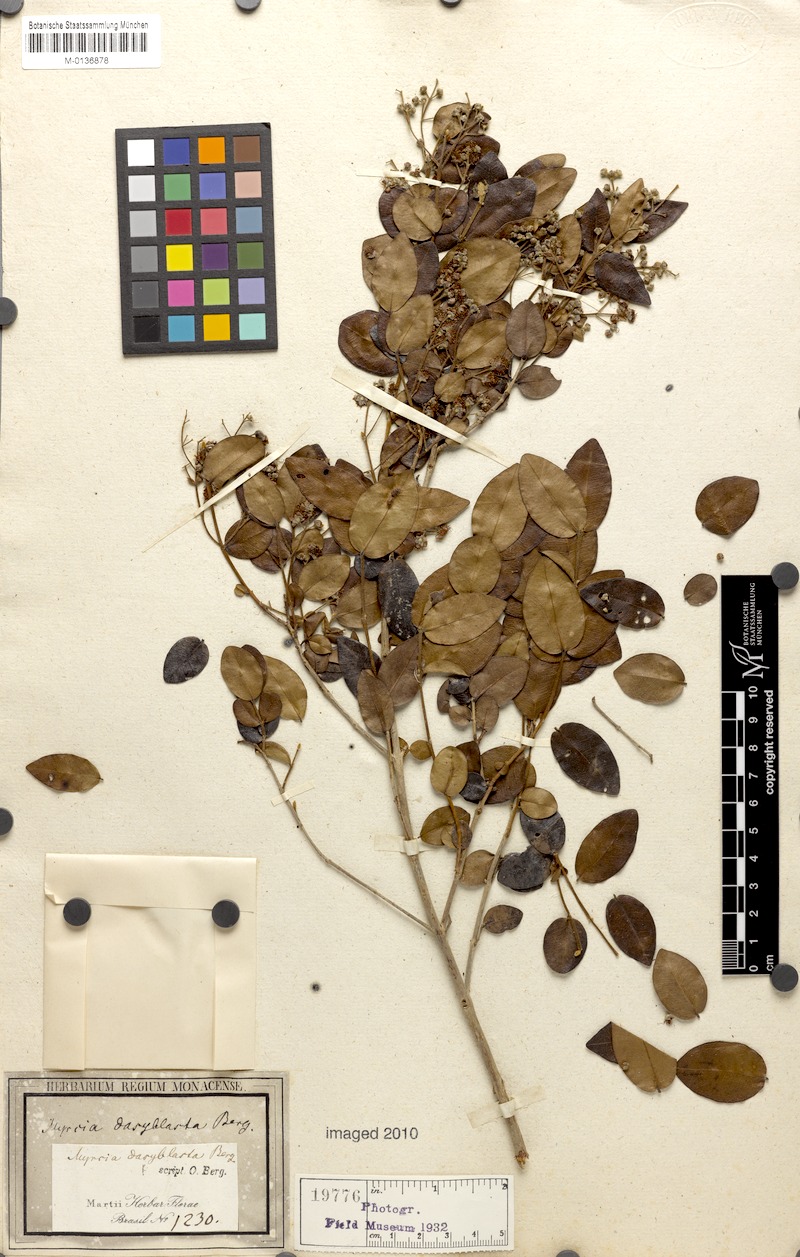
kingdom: Plantae
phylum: Tracheophyta
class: Magnoliopsida
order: Myrtales
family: Myrtaceae
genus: Myrcia
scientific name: Myrcia bella
